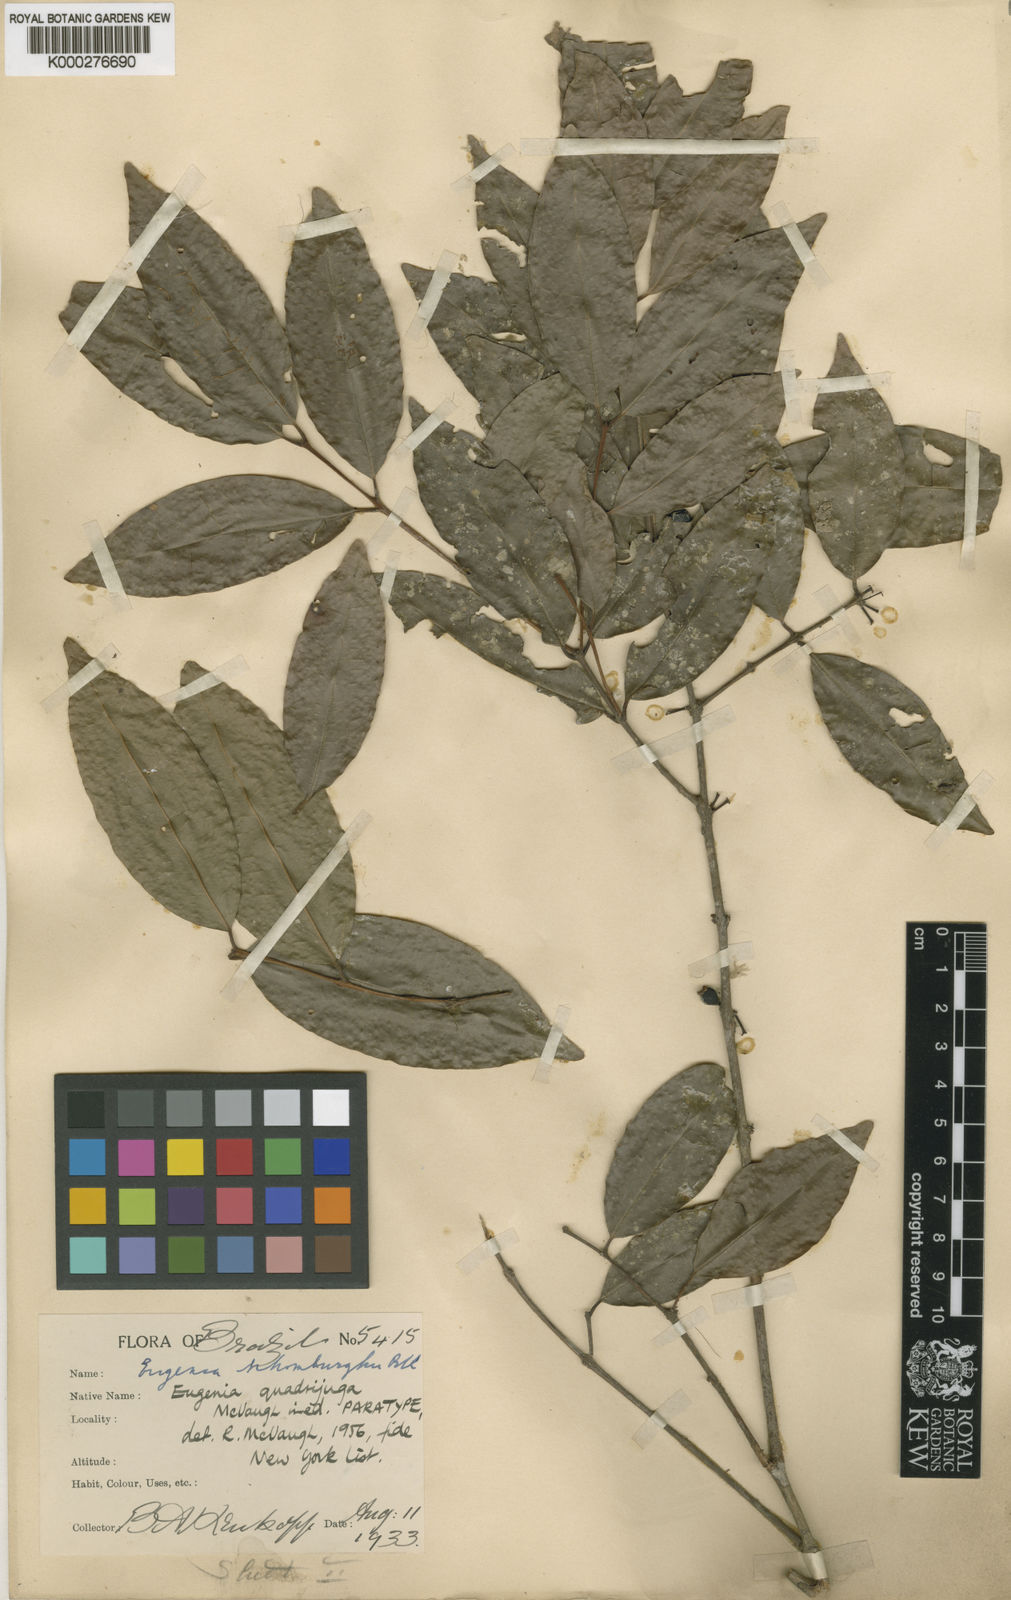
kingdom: Plantae
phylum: Tracheophyta
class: Magnoliopsida
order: Myrtales
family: Myrtaceae
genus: Eugenia
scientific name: Eugenia quadrijuga
